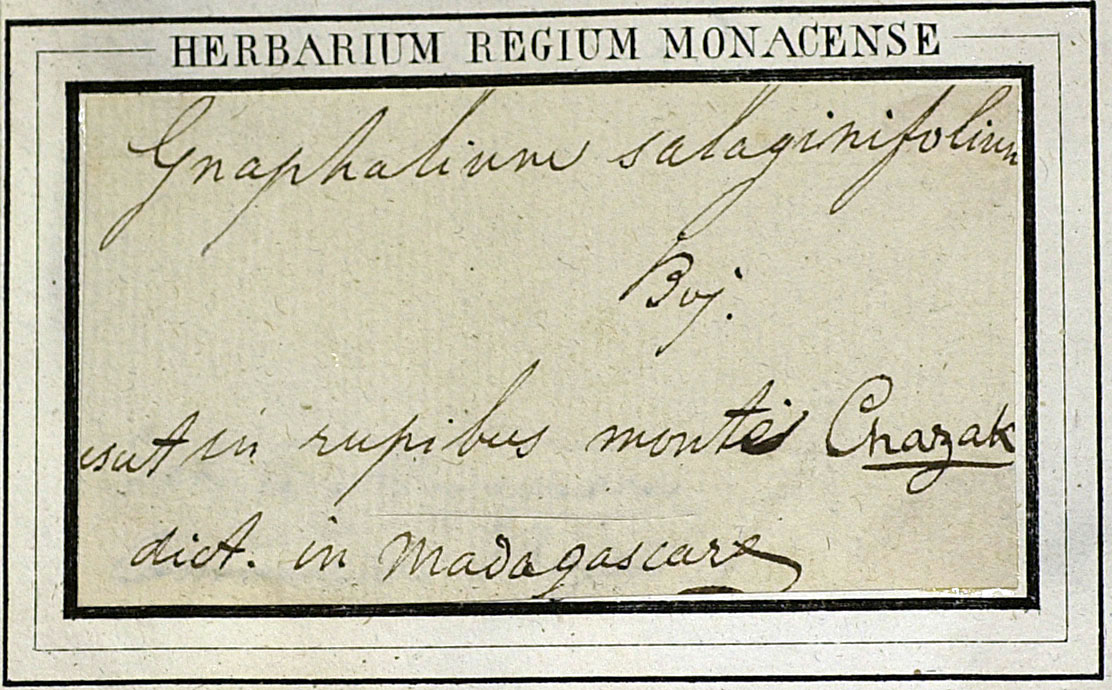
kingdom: Plantae
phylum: Tracheophyta
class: Magnoliopsida
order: Asterales
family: Asteraceae
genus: Aphelexis
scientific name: Aphelexis selaginifolia
